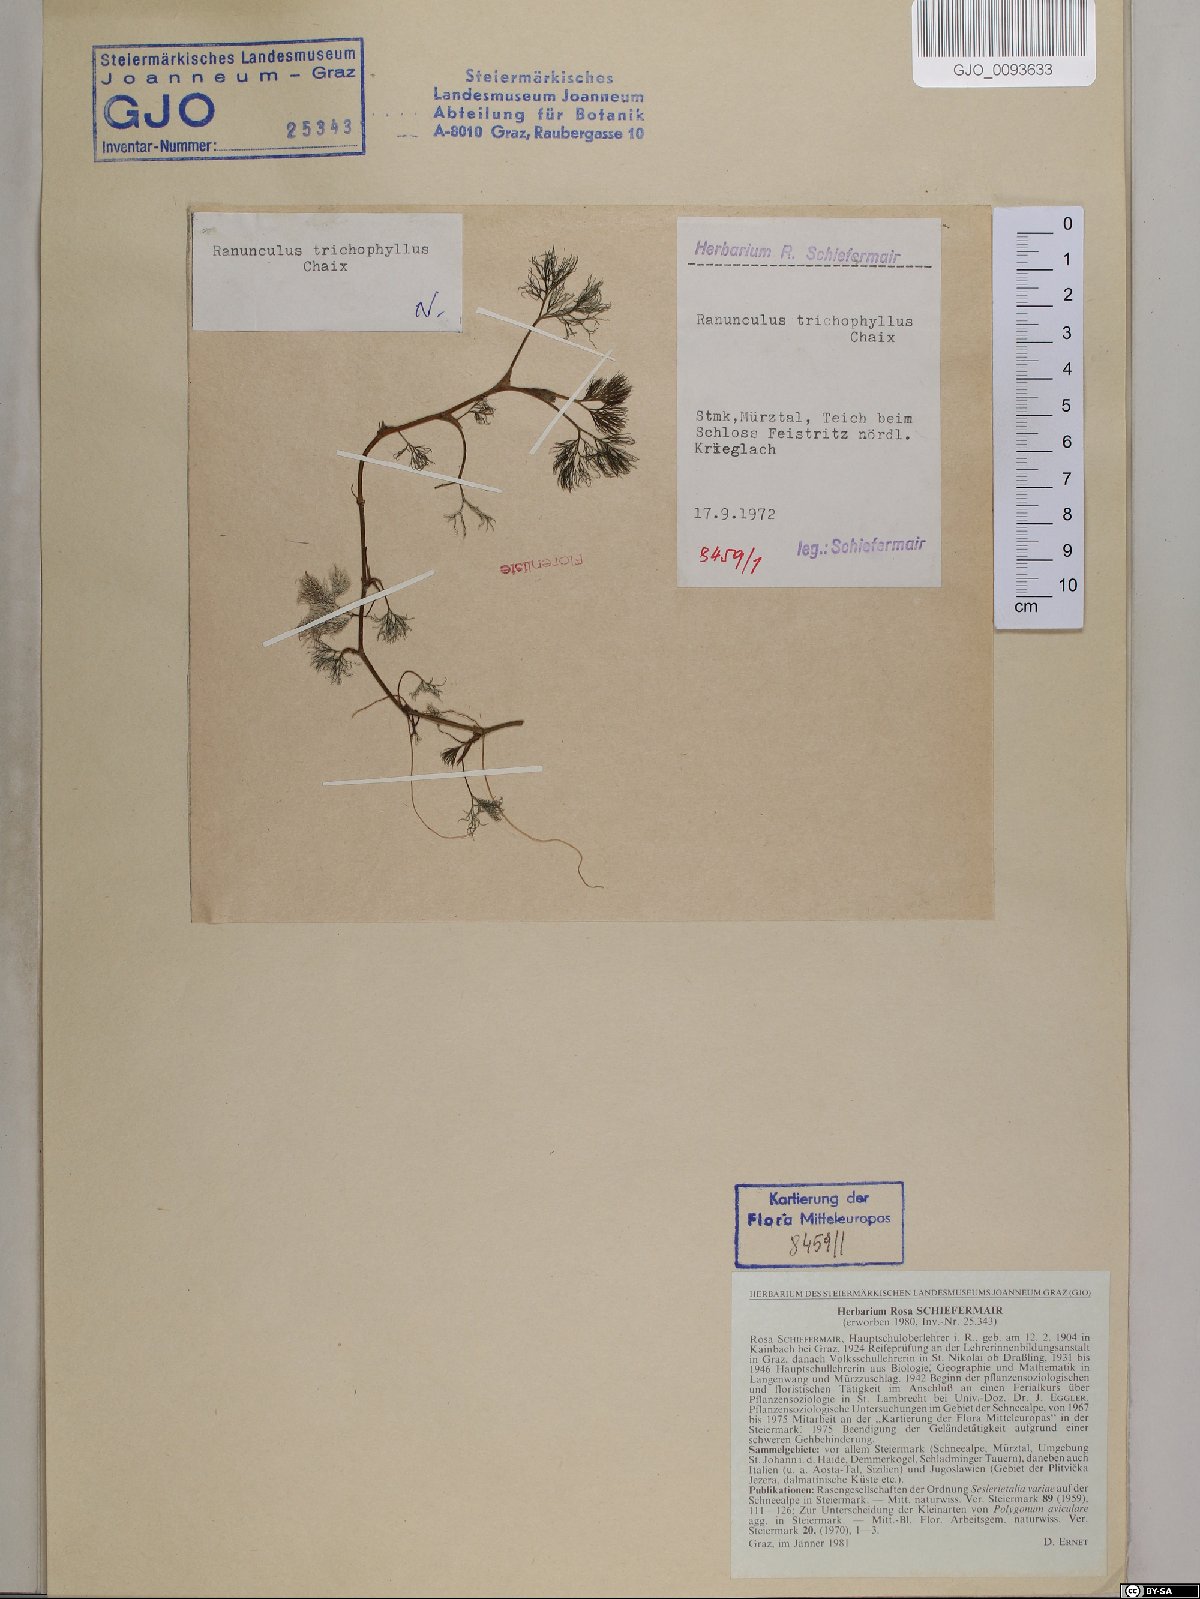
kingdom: Plantae
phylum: Tracheophyta
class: Magnoliopsida
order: Ranunculales
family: Ranunculaceae
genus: Ranunculus
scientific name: Ranunculus trichophyllus
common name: Thread-leaved water-crowfoot
